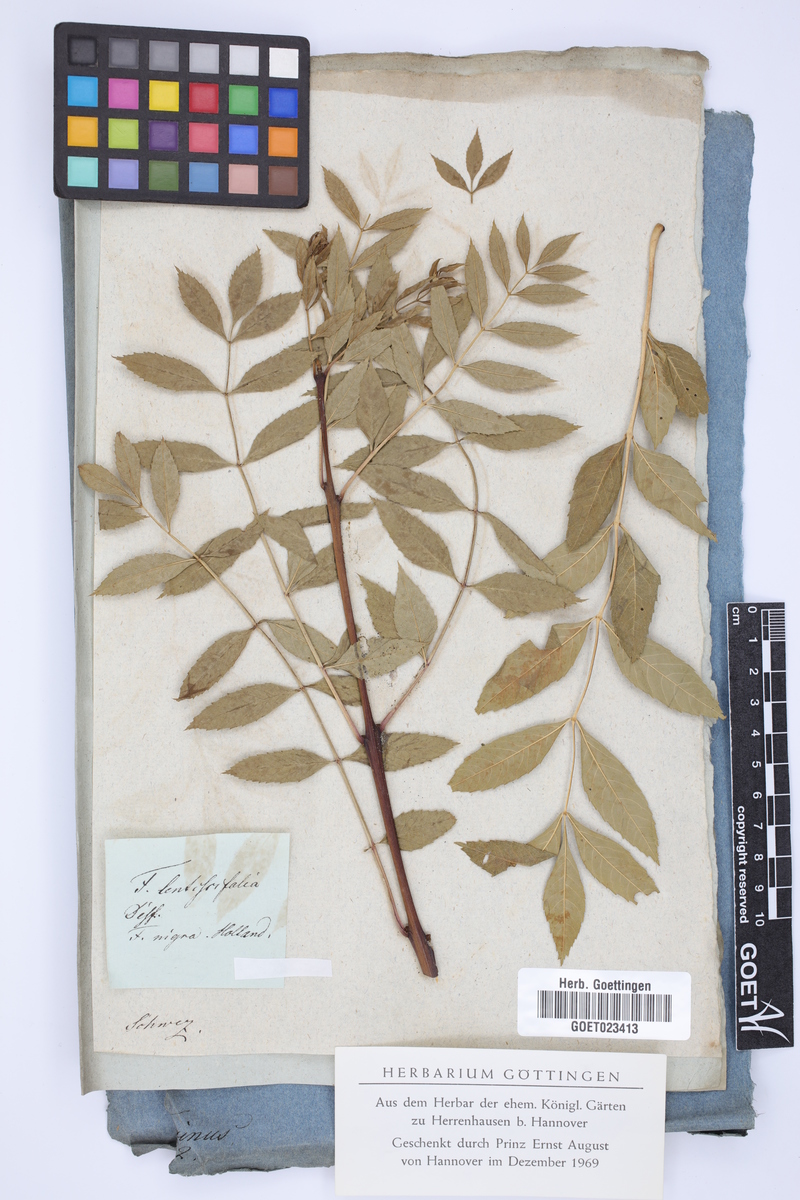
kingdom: Plantae
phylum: Tracheophyta
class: Magnoliopsida
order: Lamiales
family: Oleaceae
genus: Fraxinus
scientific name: Fraxinus angustifolia
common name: Narrow-leafed ash
